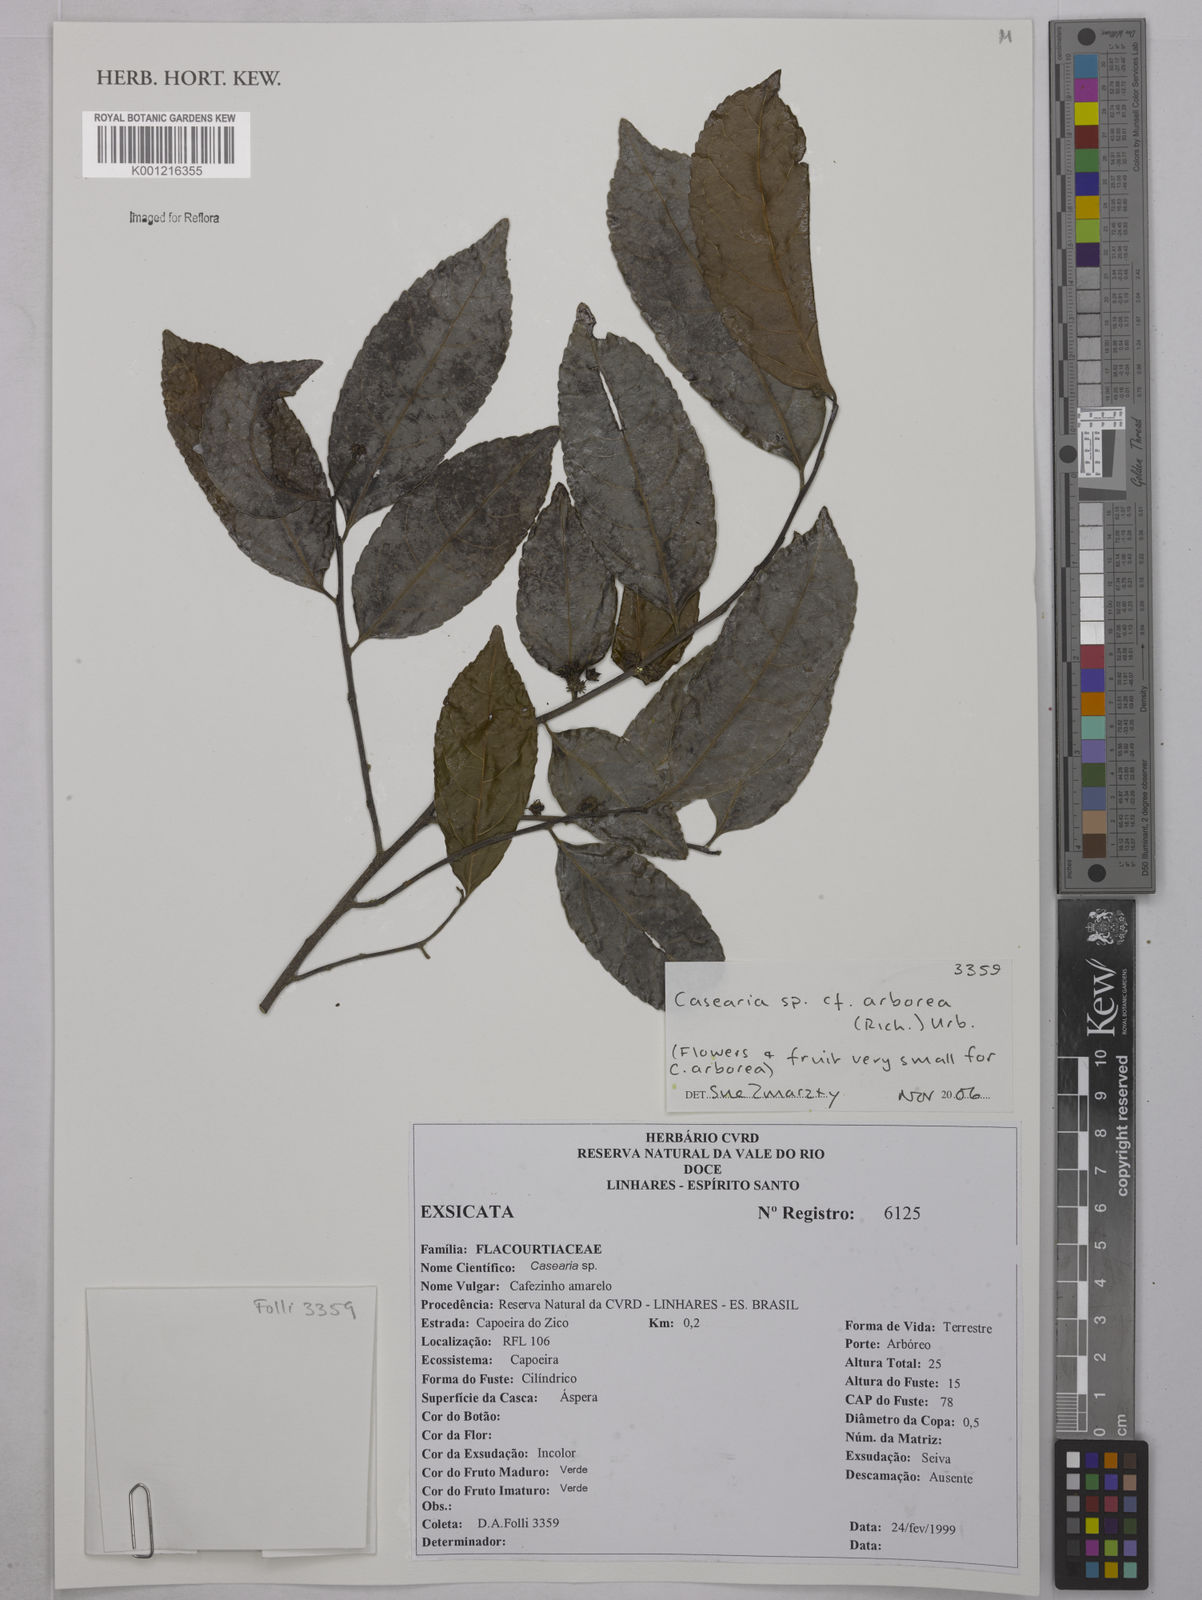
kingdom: Plantae
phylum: Tracheophyta
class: Magnoliopsida
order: Malpighiales
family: Salicaceae
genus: Casearia
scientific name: Casearia arborea
